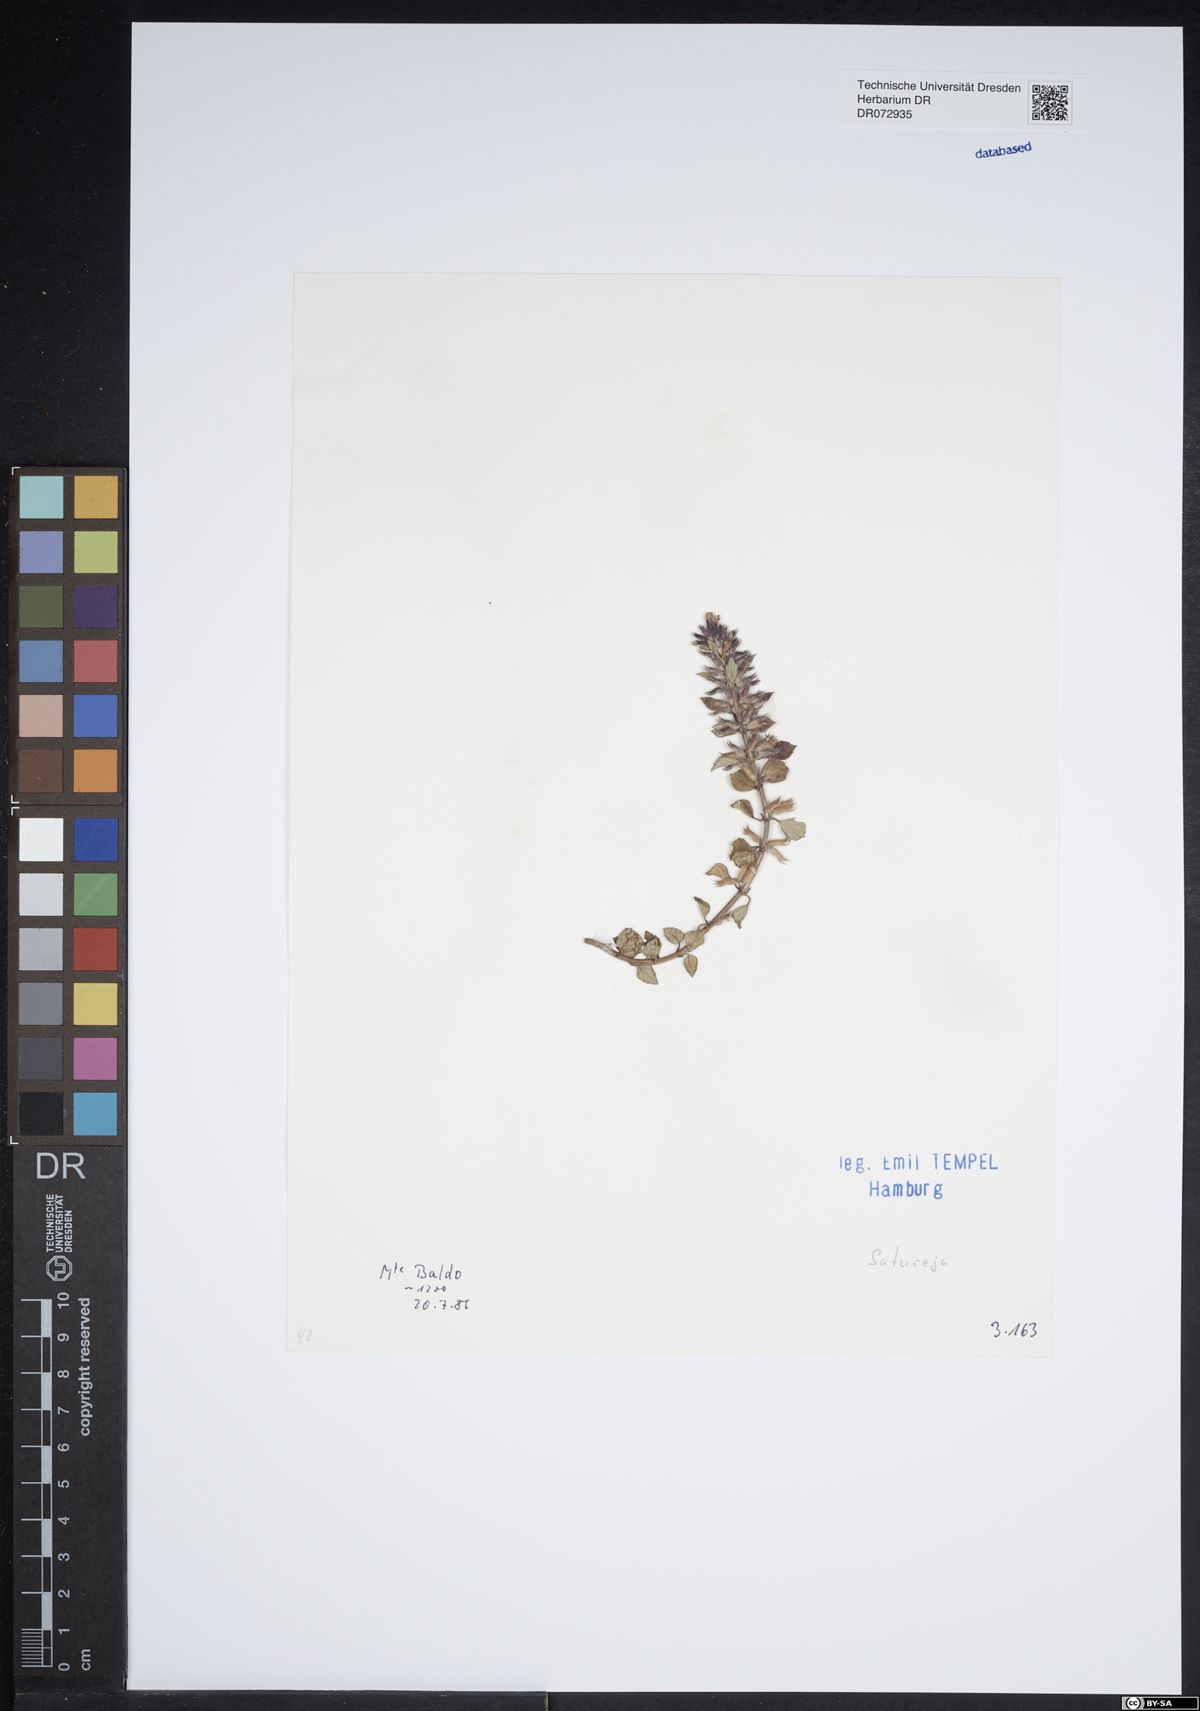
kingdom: Plantae
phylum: Tracheophyta
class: Magnoliopsida
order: Lamiales
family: Lamiaceae
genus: Satureja
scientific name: Satureja
